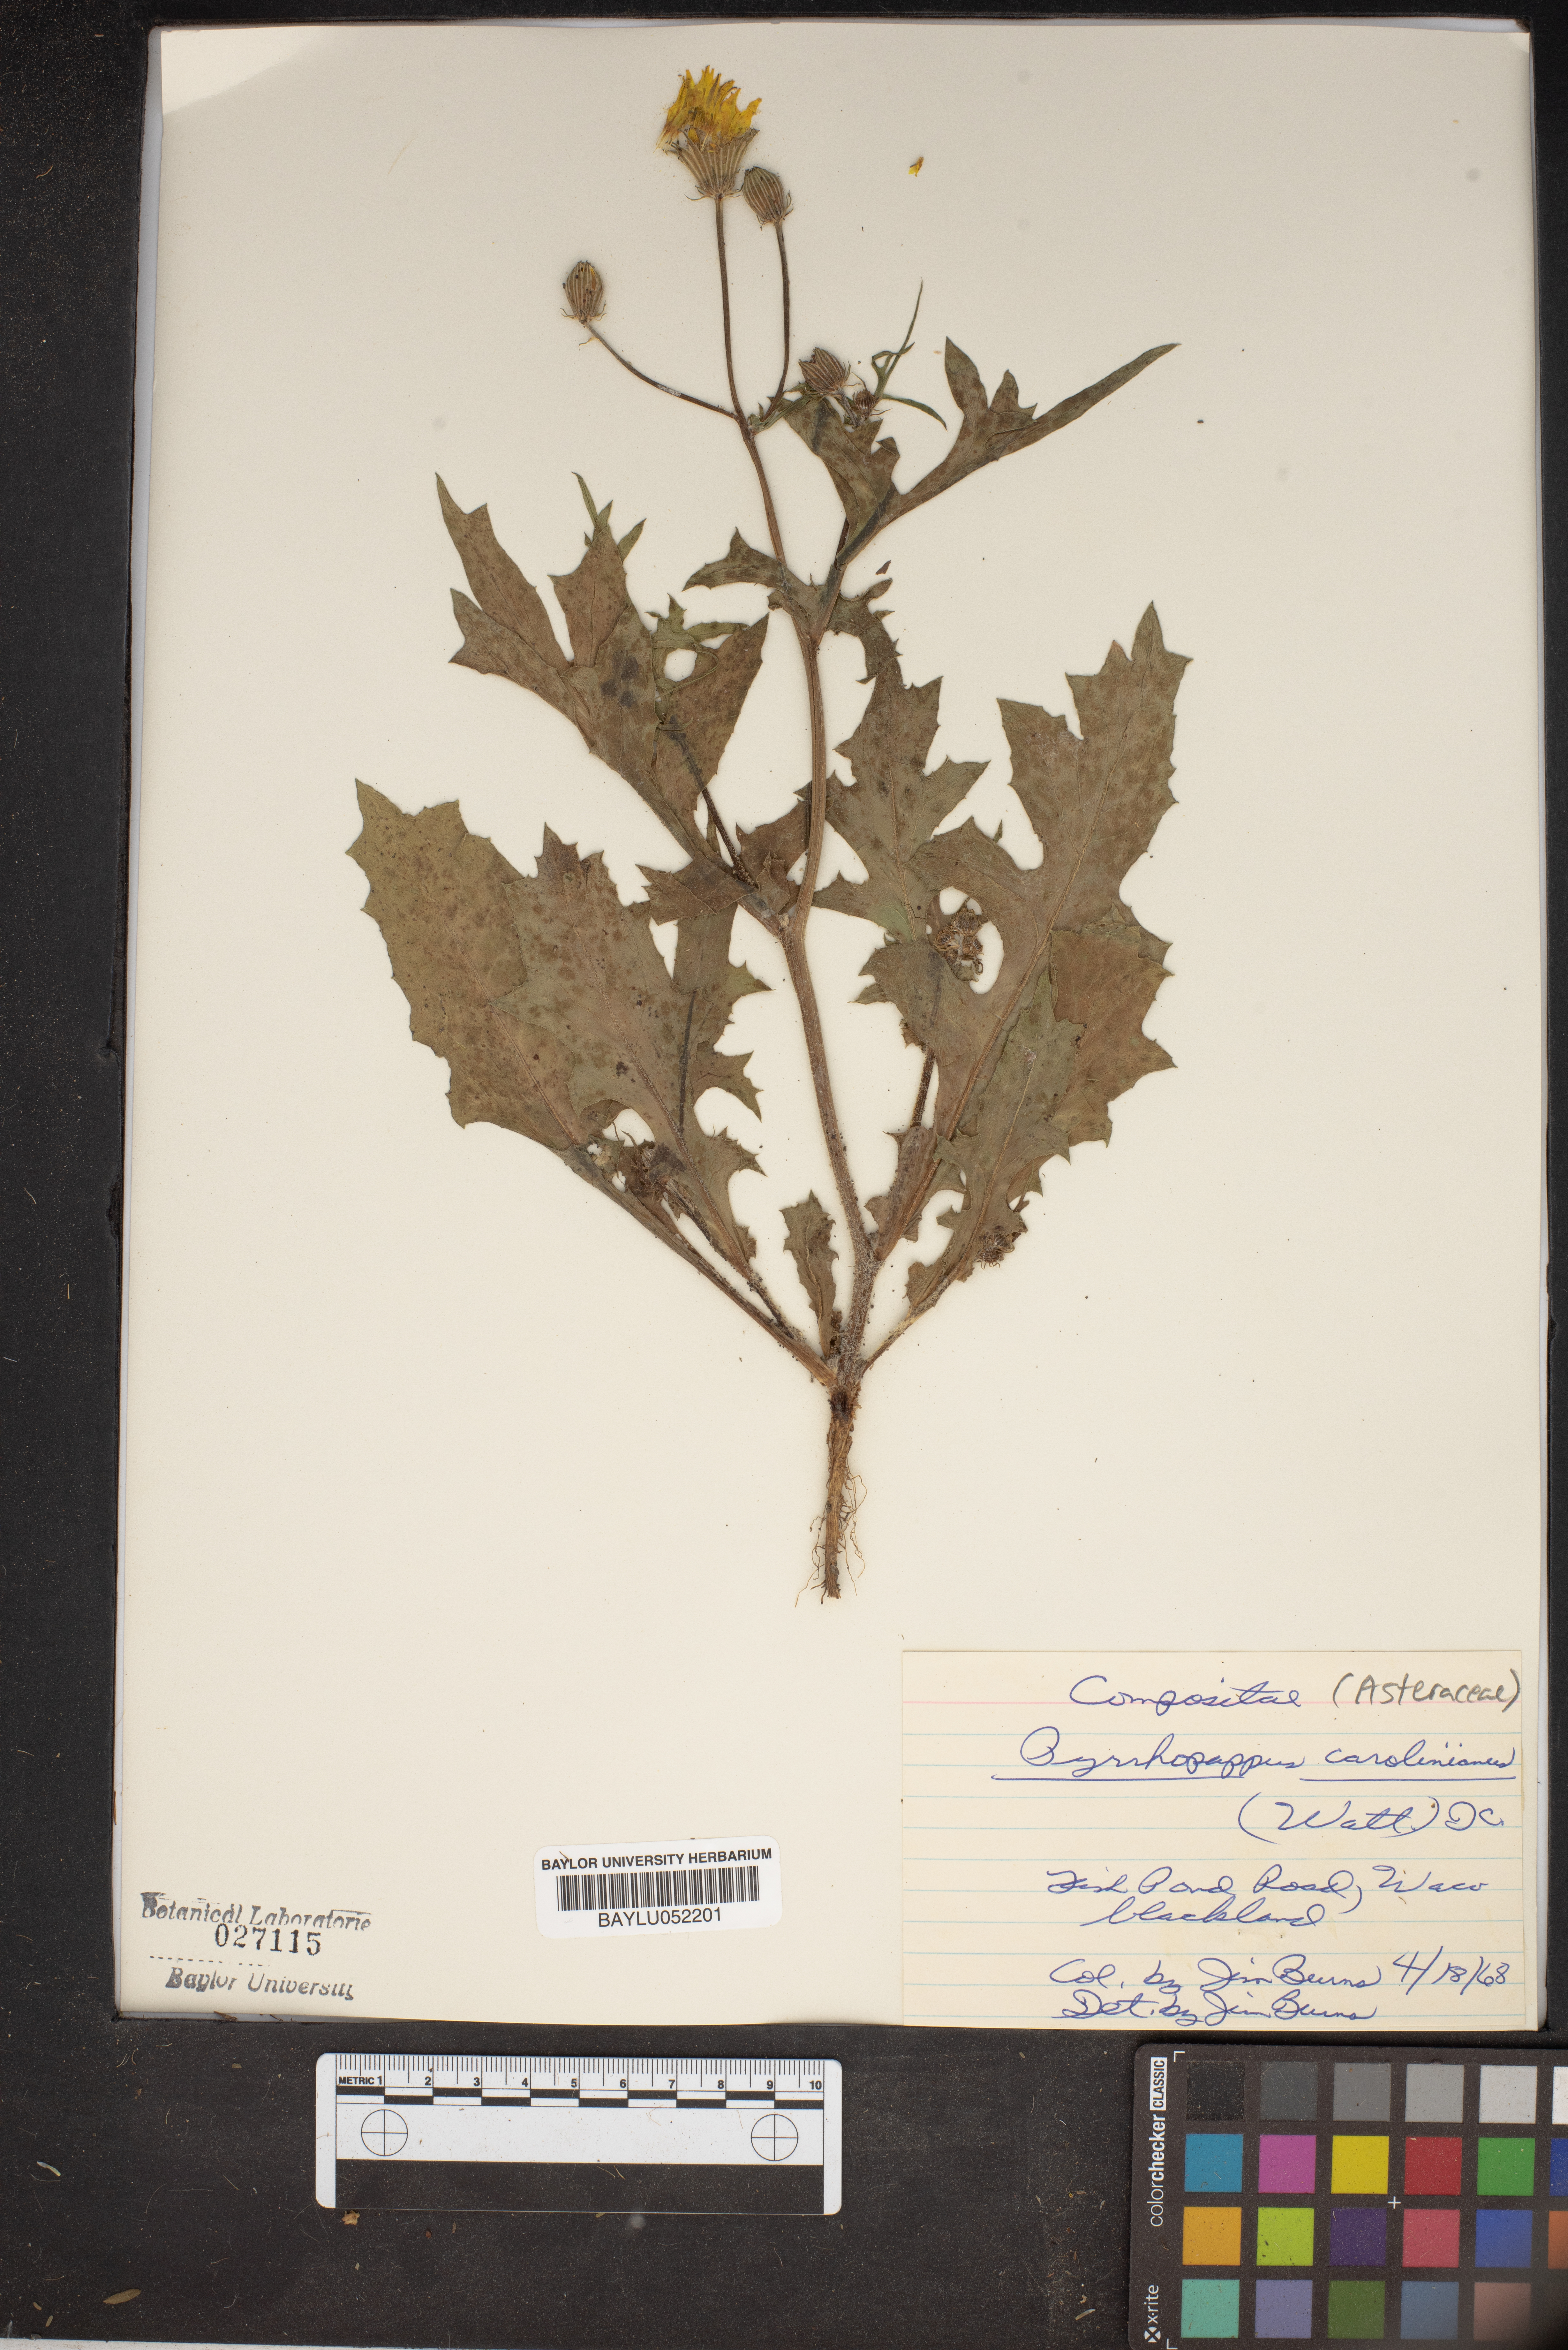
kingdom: Plantae
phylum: Tracheophyta
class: Magnoliopsida
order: Asterales
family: Asteraceae
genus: Pyrrhopappus
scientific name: Pyrrhopappus carolinianus
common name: Carolina desert-chicory
